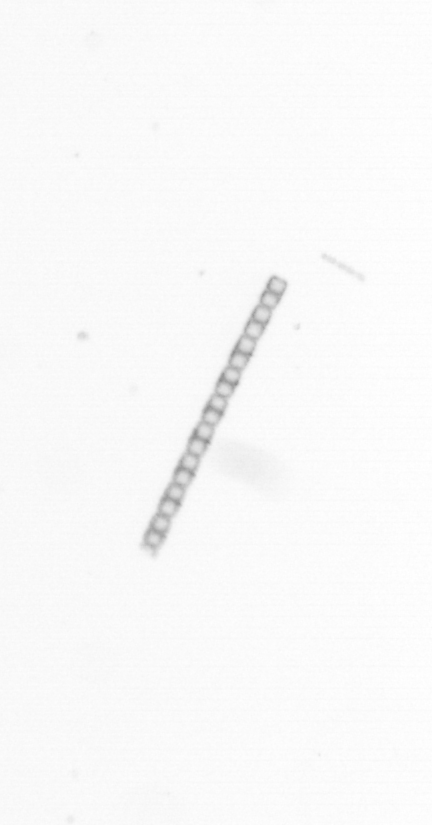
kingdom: Chromista
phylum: Ochrophyta
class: Bacillariophyceae
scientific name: Bacillariophyceae
